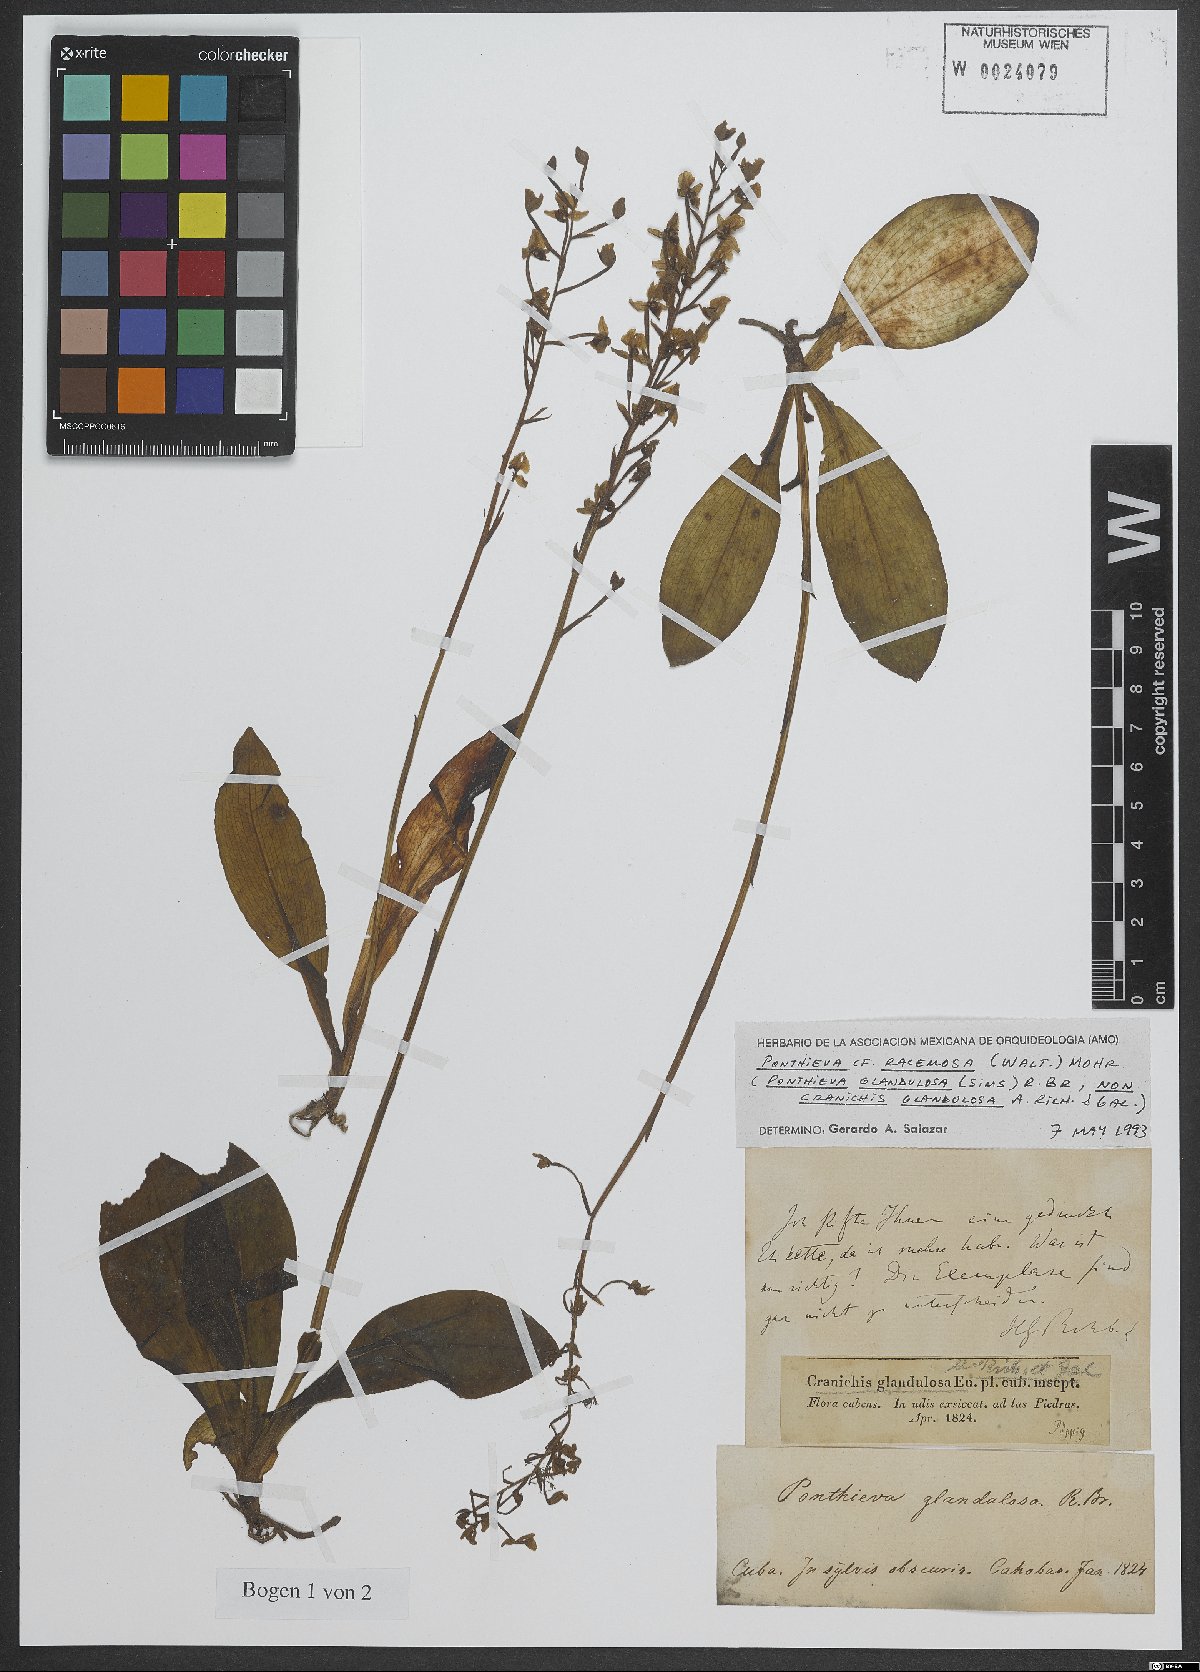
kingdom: Plantae
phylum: Tracheophyta
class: Liliopsida
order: Asparagales
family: Orchidaceae
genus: Ponthieva
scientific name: Ponthieva racemosa
